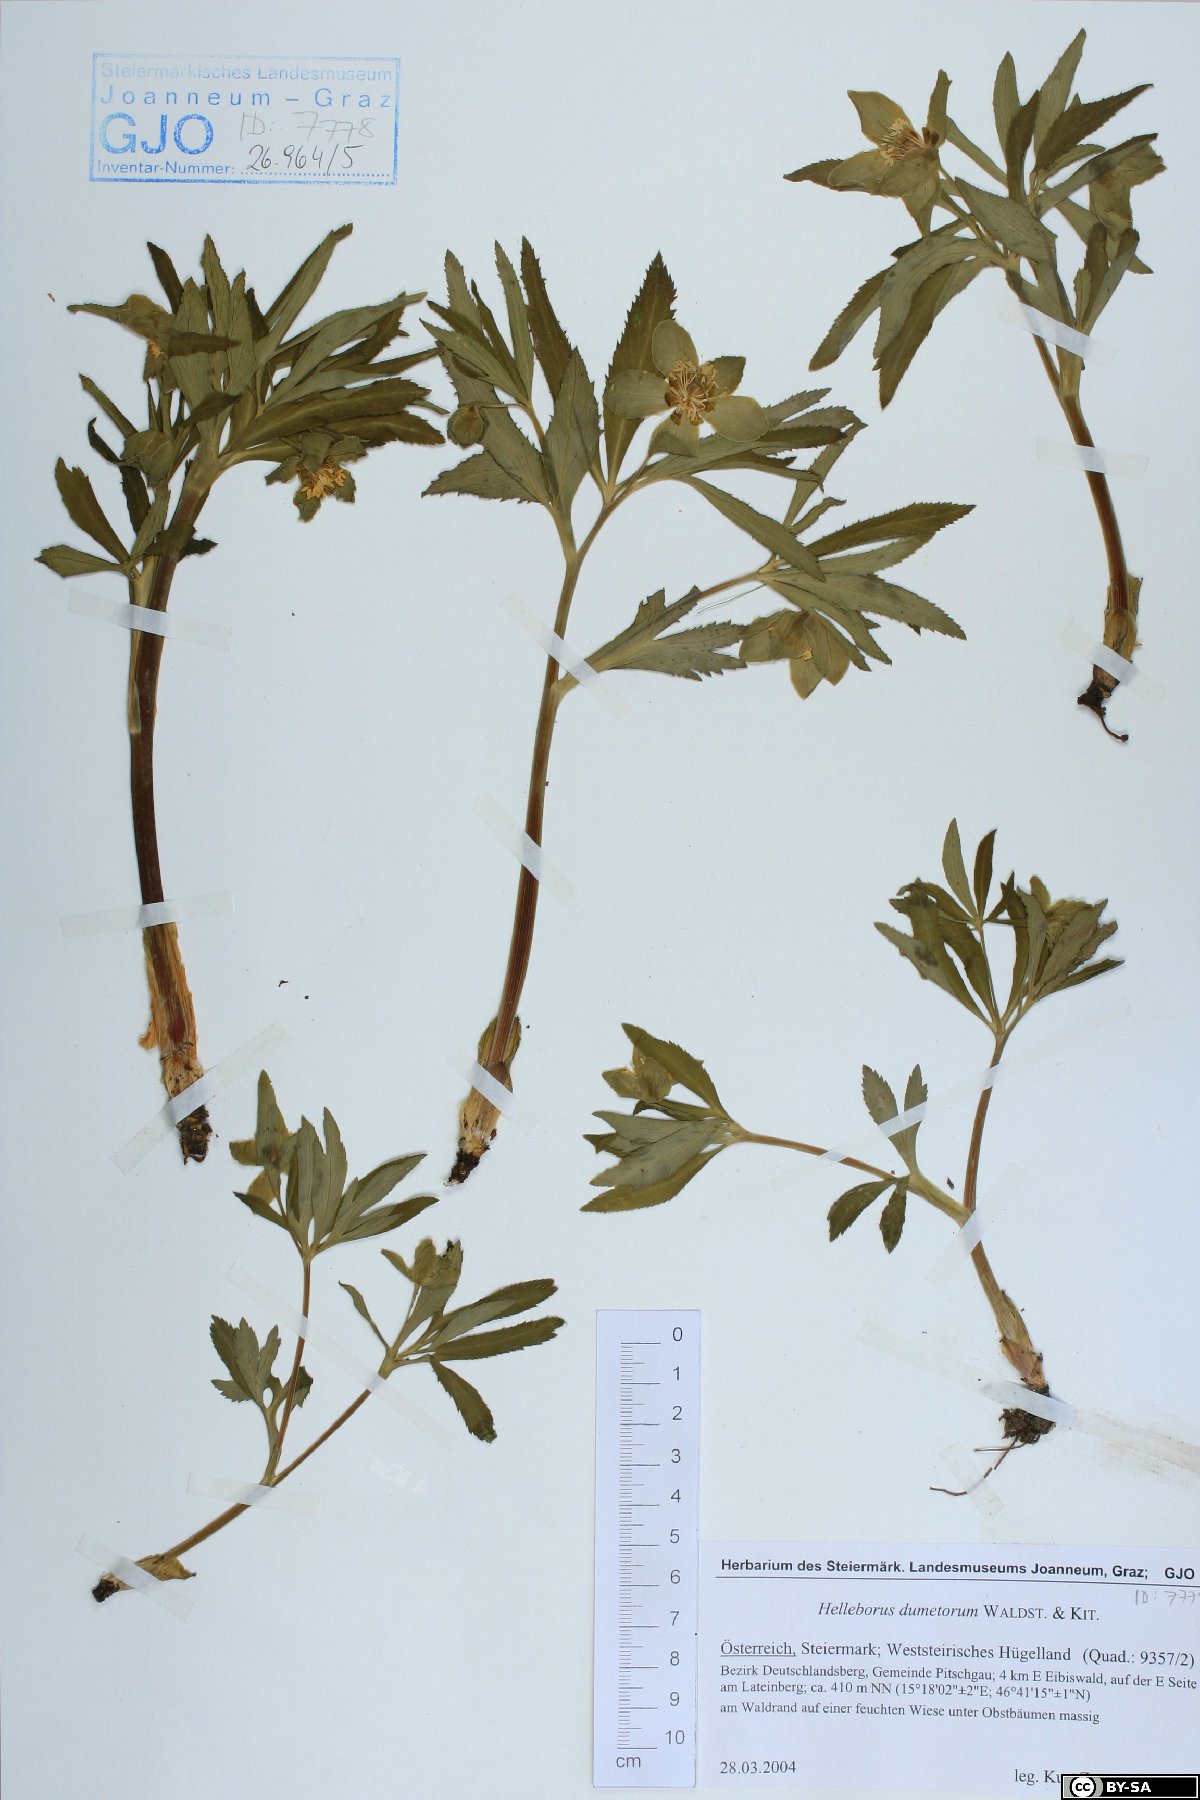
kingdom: Plantae
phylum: Tracheophyta
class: Magnoliopsida
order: Ranunculales
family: Ranunculaceae
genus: Helleborus
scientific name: Helleborus dumetorum
